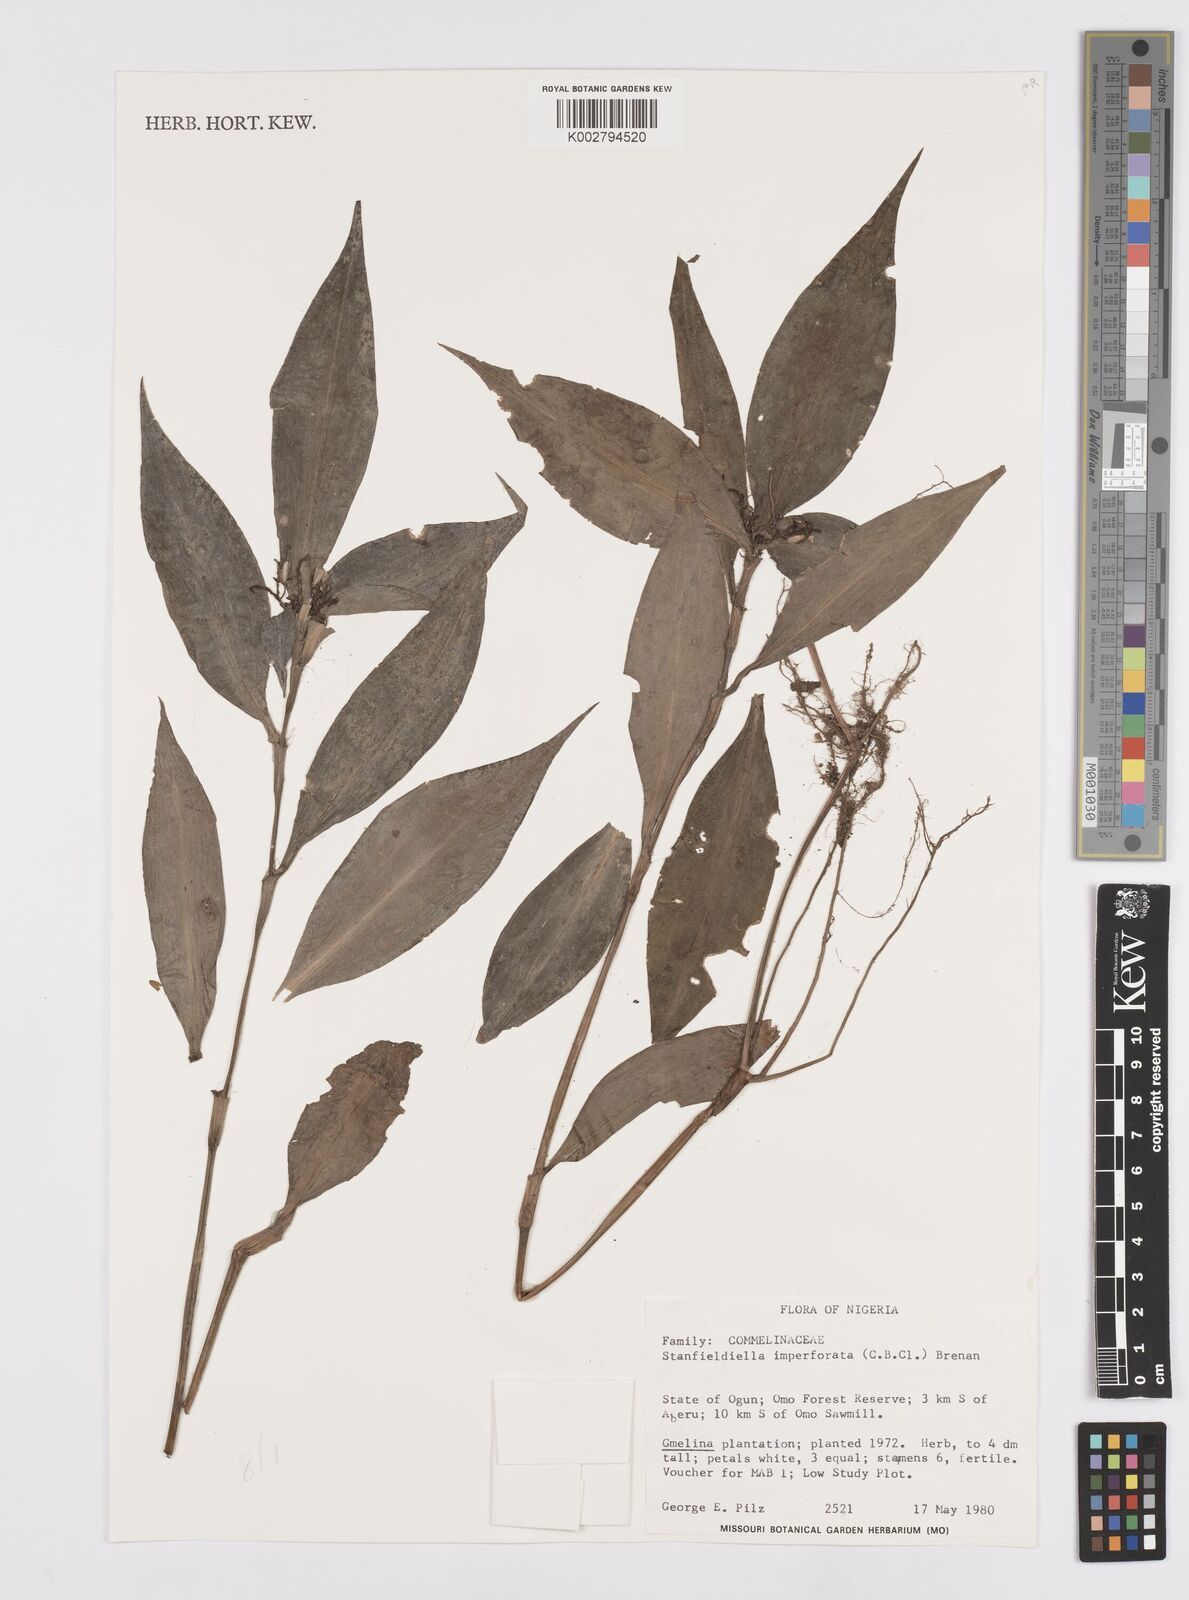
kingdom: Plantae
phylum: Tracheophyta
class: Liliopsida
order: Commelinales
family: Commelinaceae
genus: Stanfieldiella
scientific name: Stanfieldiella imperforata
